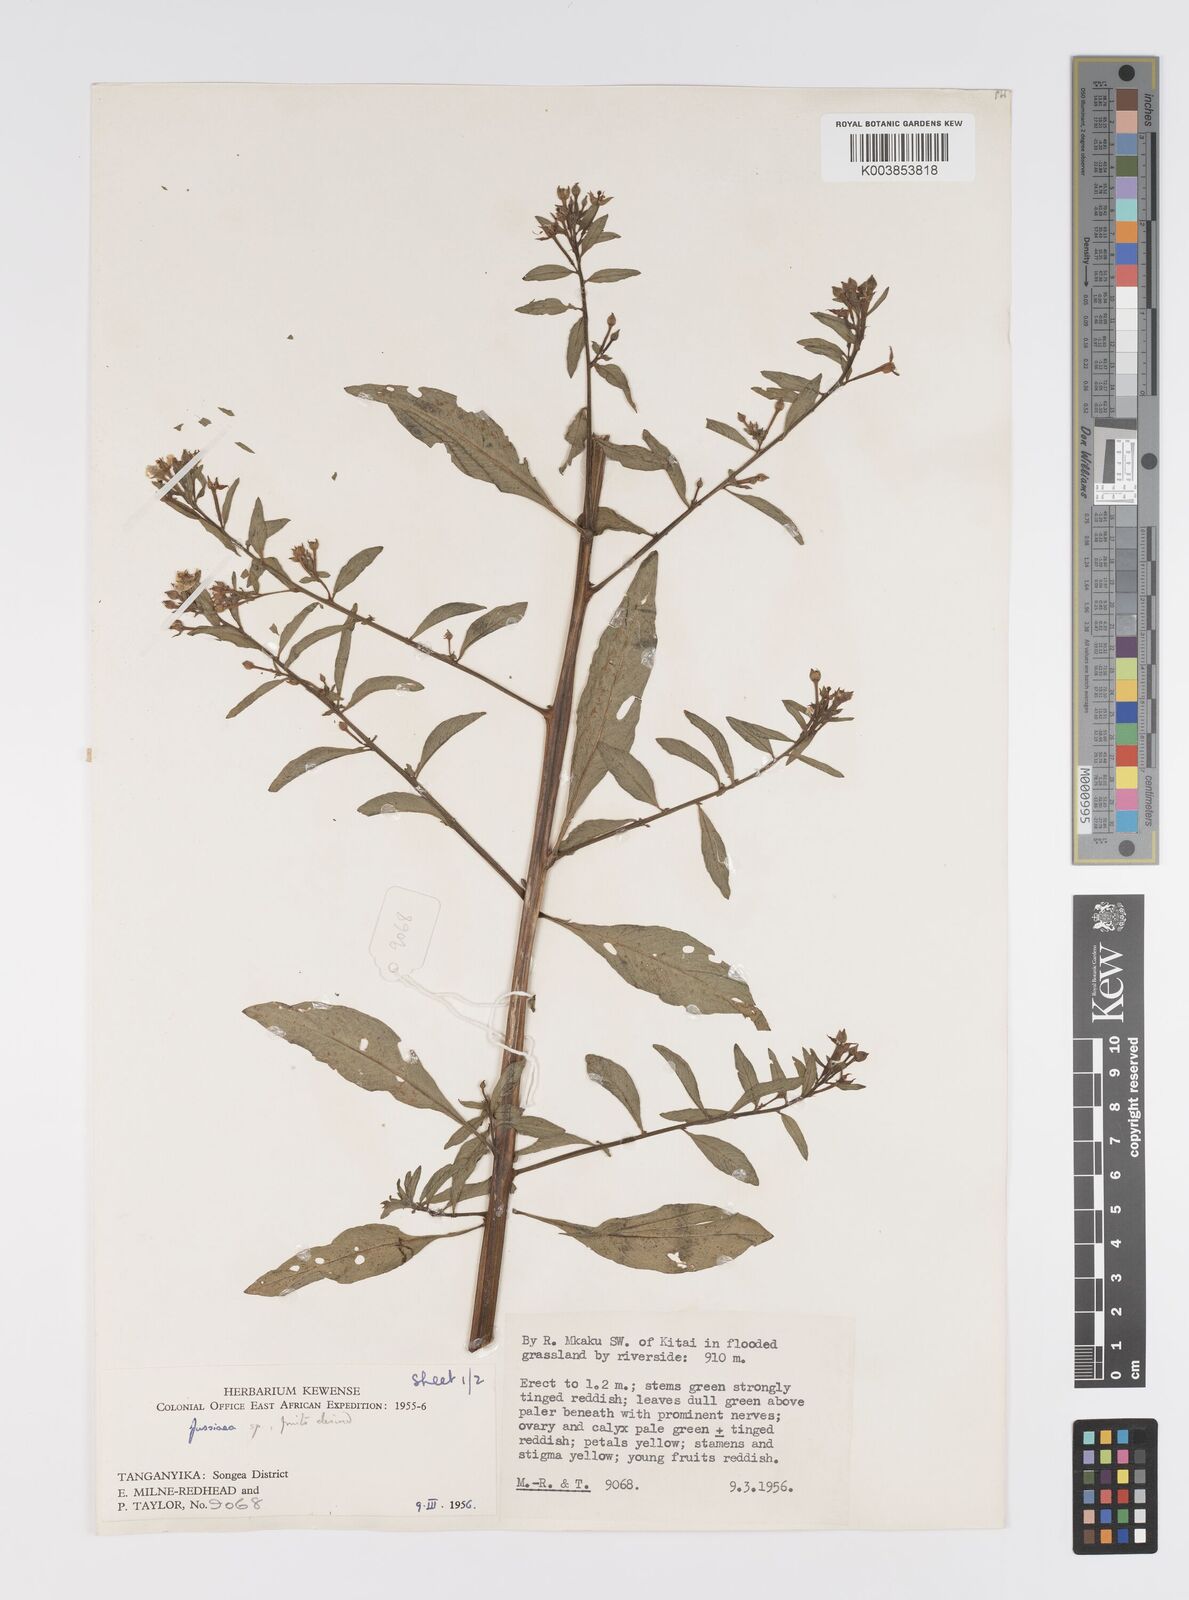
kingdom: Plantae
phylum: Tracheophyta
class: Magnoliopsida
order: Myrtales
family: Onagraceae
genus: Ludwigia
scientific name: Ludwigia
